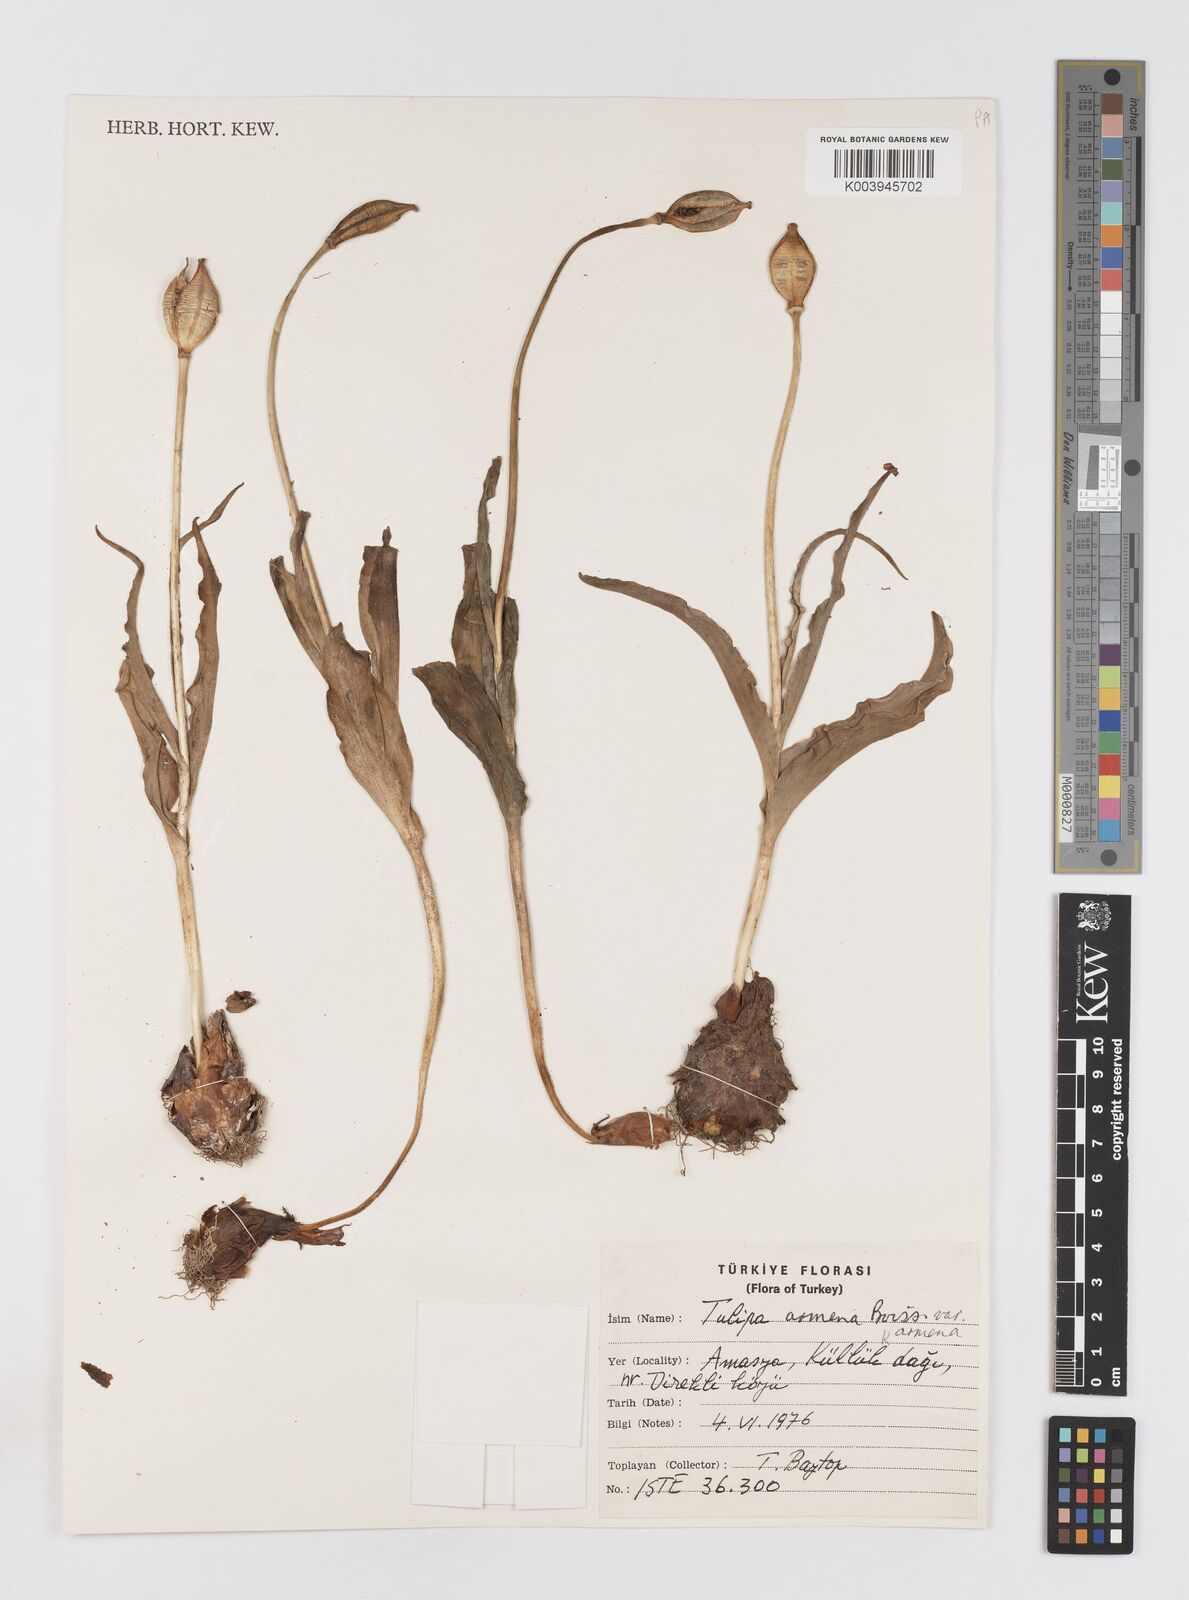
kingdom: Plantae
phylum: Tracheophyta
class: Liliopsida
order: Liliales
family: Liliaceae
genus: Tulipa
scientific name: Tulipa armena
